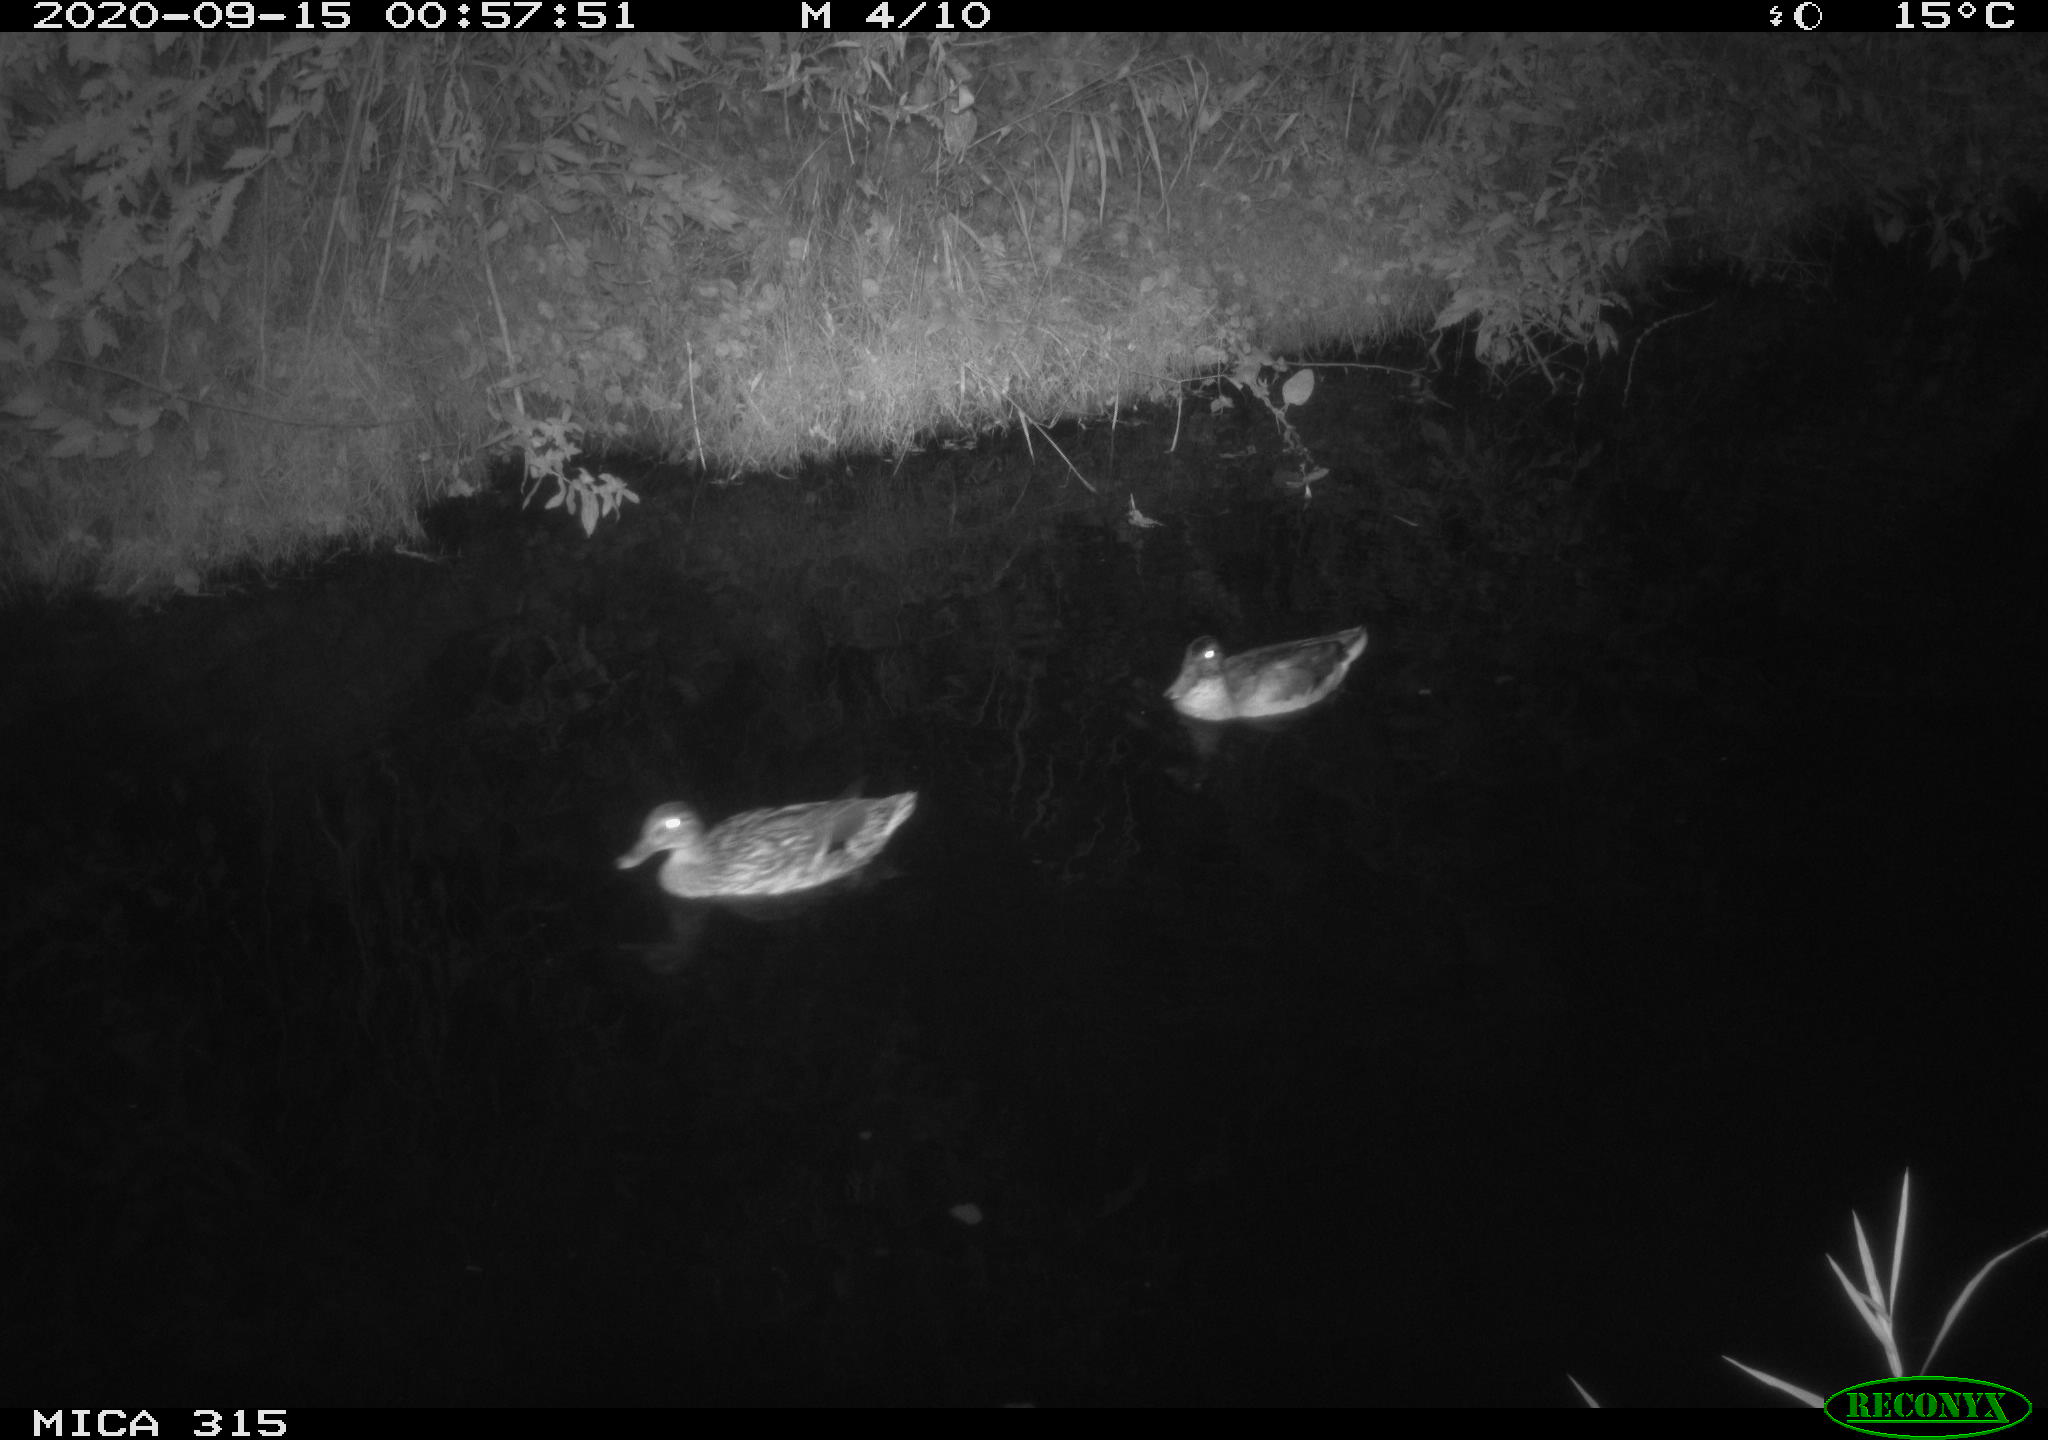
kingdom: Animalia
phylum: Chordata
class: Aves
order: Anseriformes
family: Anatidae
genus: Anas
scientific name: Anas platyrhynchos
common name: Mallard
